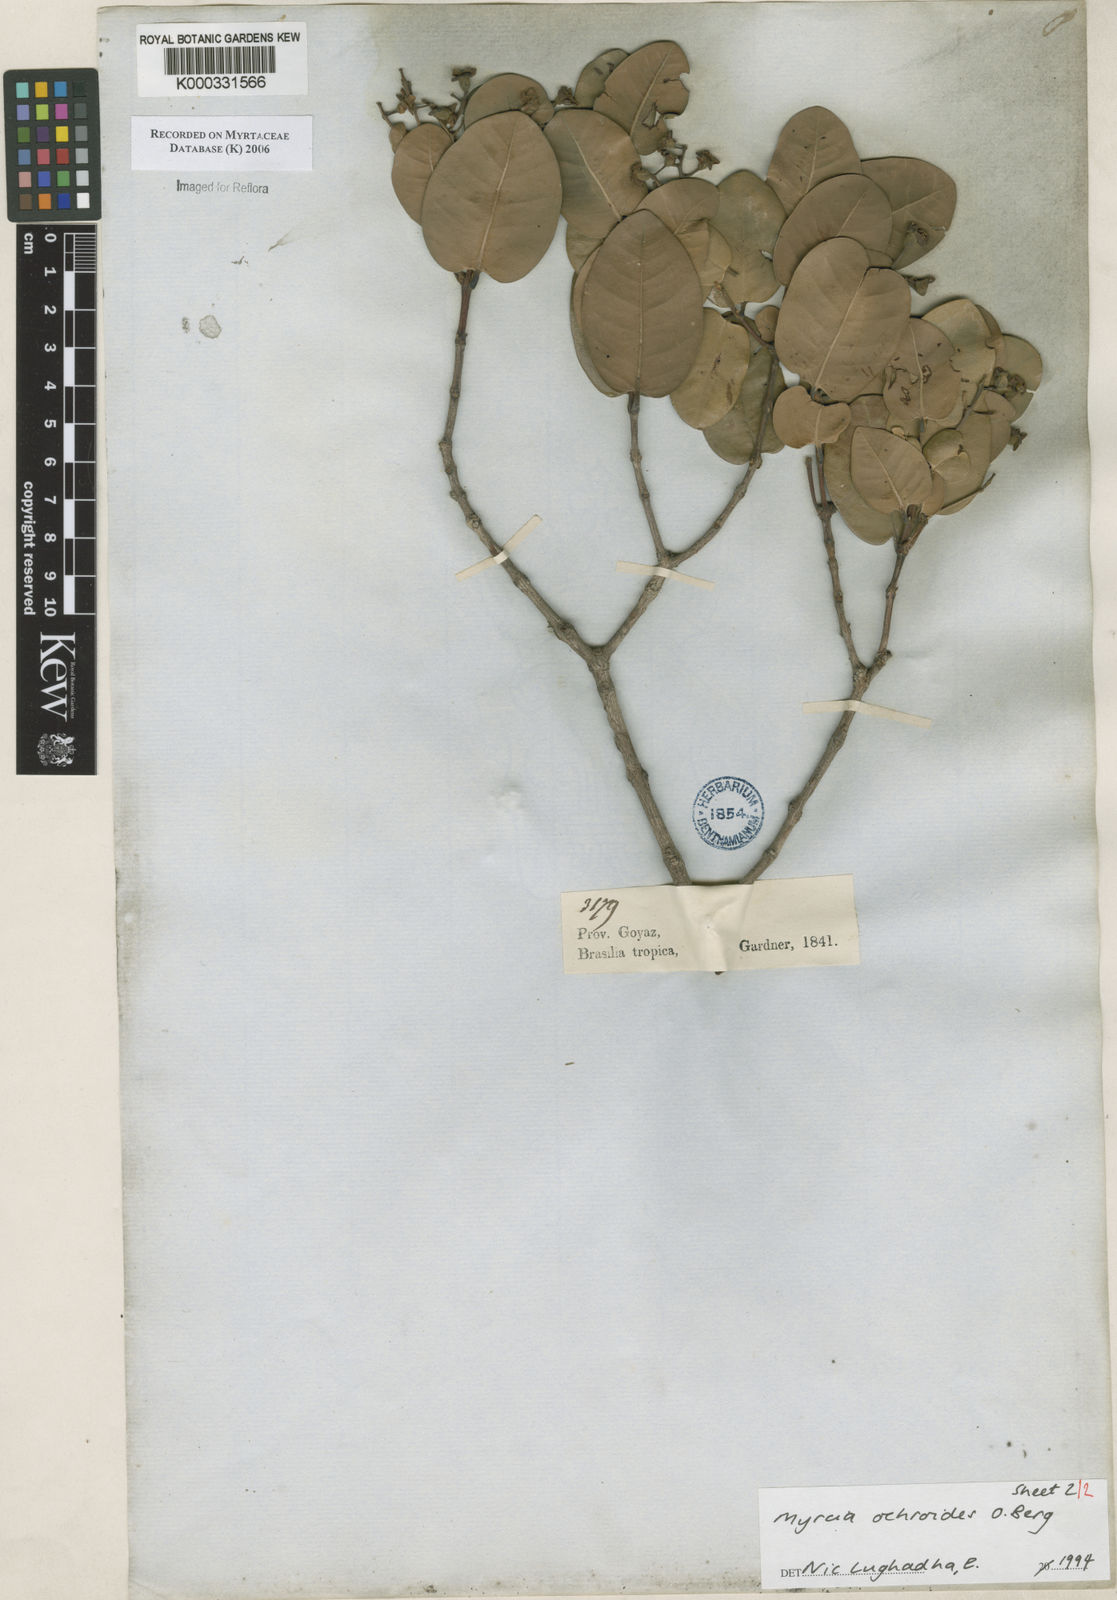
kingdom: Plantae
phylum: Tracheophyta
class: Magnoliopsida
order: Myrtales
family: Myrtaceae
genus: Myrcia
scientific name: Myrcia ochroides
